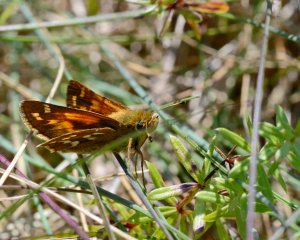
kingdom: Animalia
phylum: Arthropoda
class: Insecta
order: Lepidoptera
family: Hesperiidae
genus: Hesperia
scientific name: Hesperia comma
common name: Common Branded Skipper
